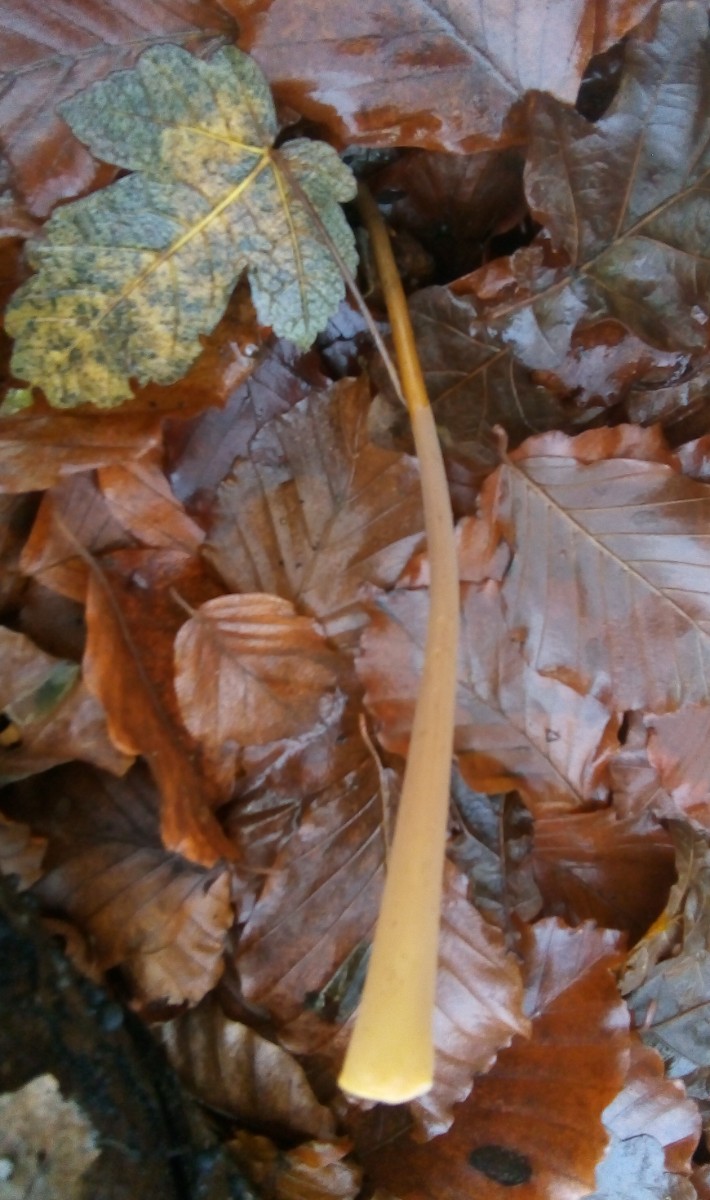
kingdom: Fungi
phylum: Basidiomycota
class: Agaricomycetes
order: Agaricales
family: Typhulaceae
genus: Typhula
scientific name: Typhula fistulosa
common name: pibet rørkølle
